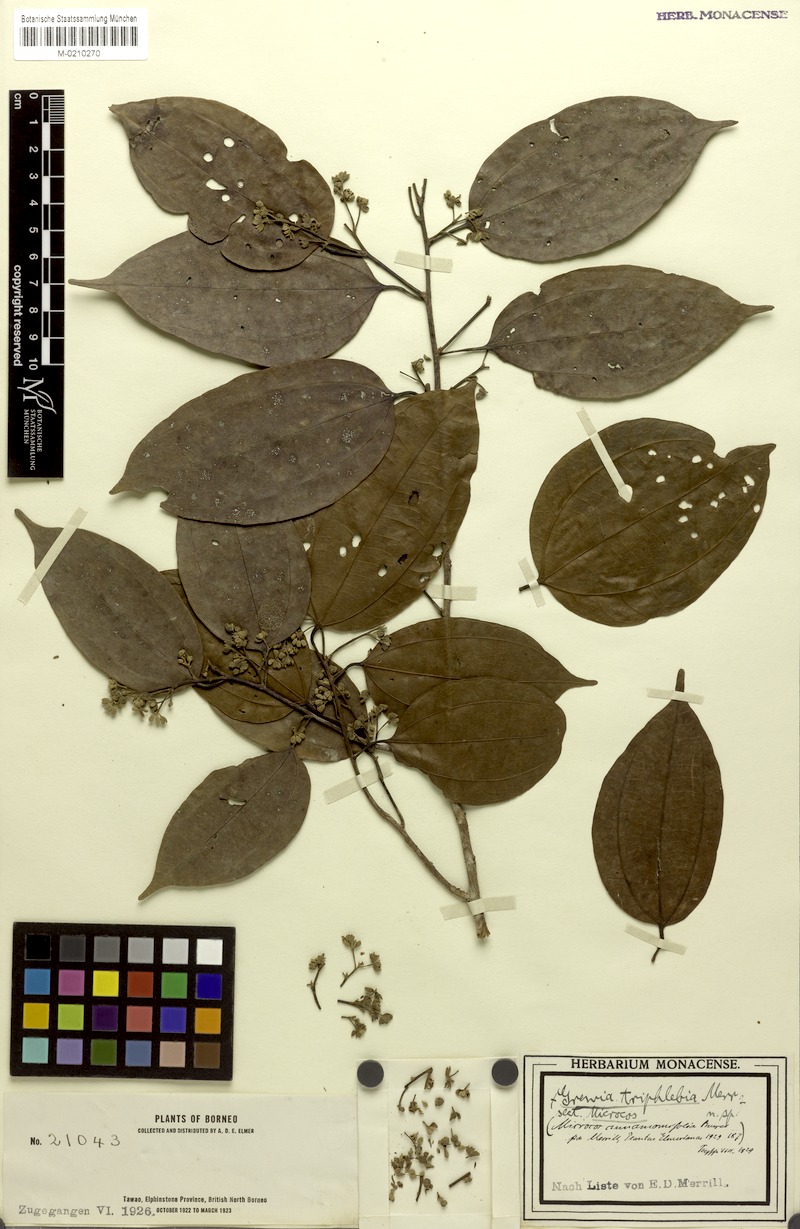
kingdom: Plantae
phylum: Tracheophyta
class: Magnoliopsida
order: Malvales
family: Malvaceae
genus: Microcos
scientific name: Microcos cinnamomifolia
